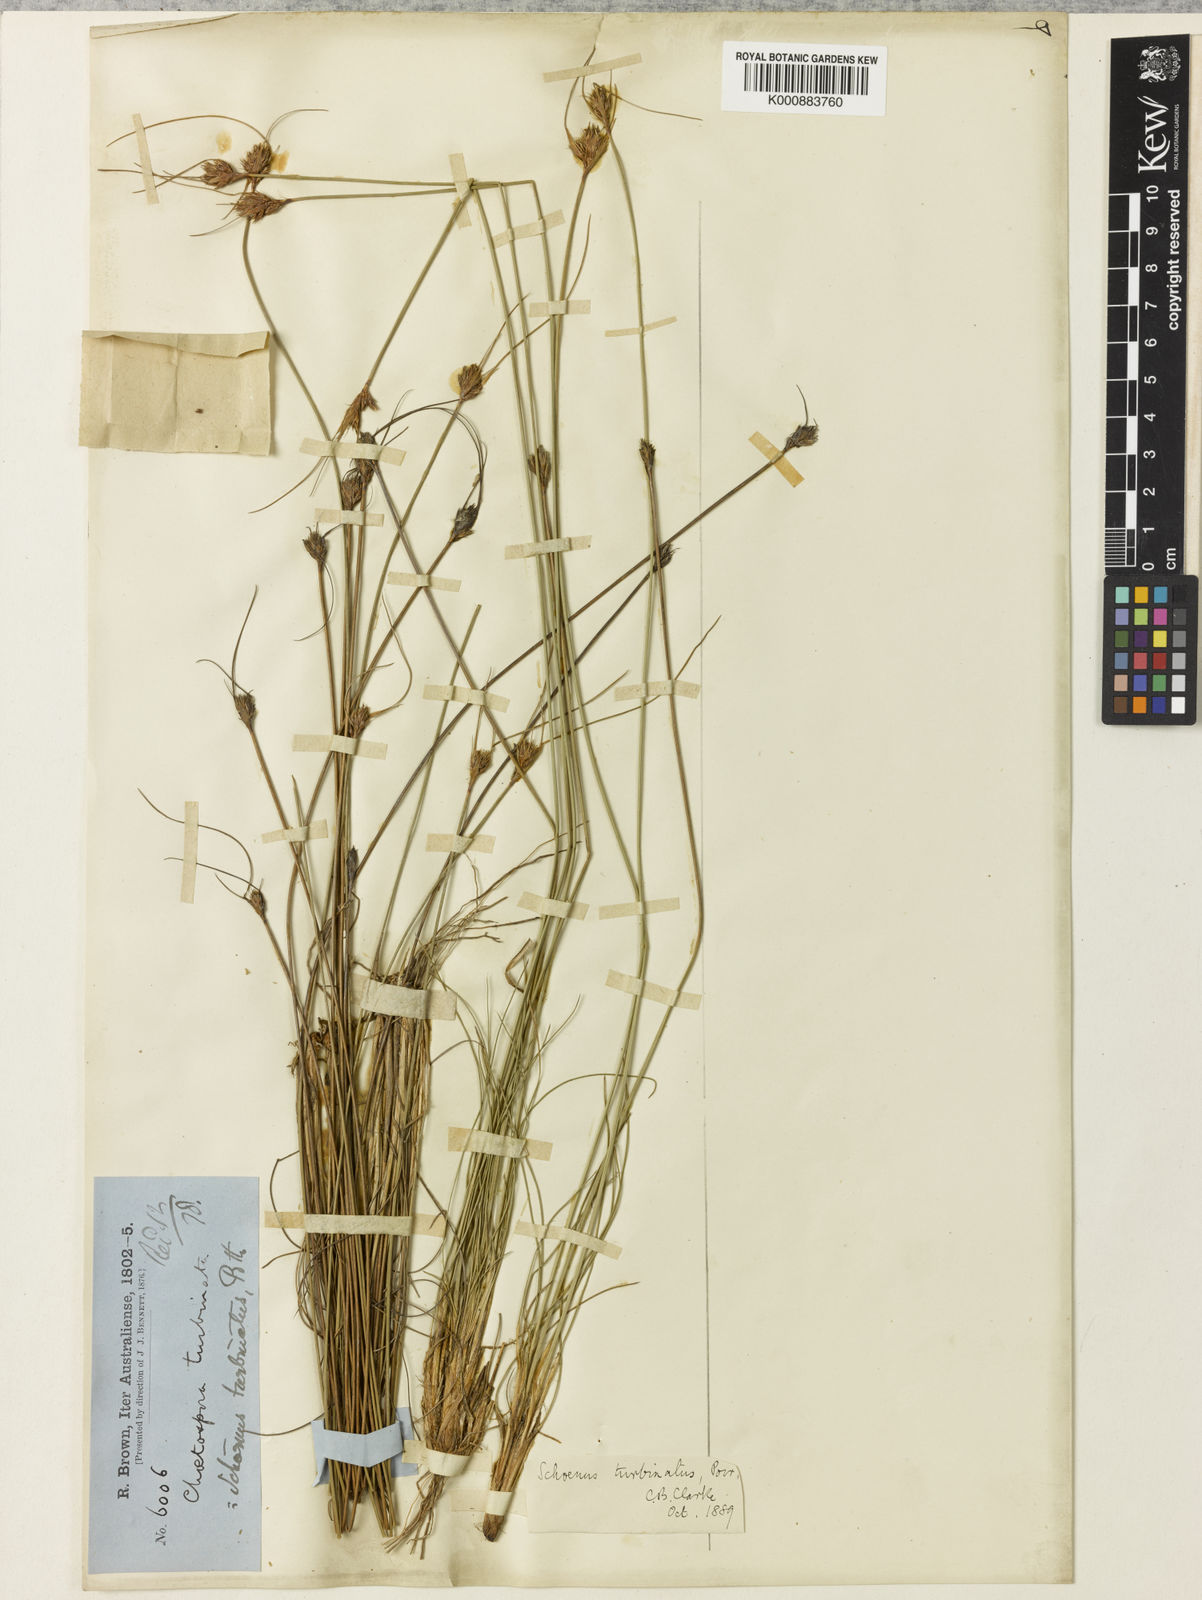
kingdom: Plantae
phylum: Tracheophyta
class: Liliopsida
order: Poales
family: Cyperaceae
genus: Schoenus
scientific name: Schoenus
